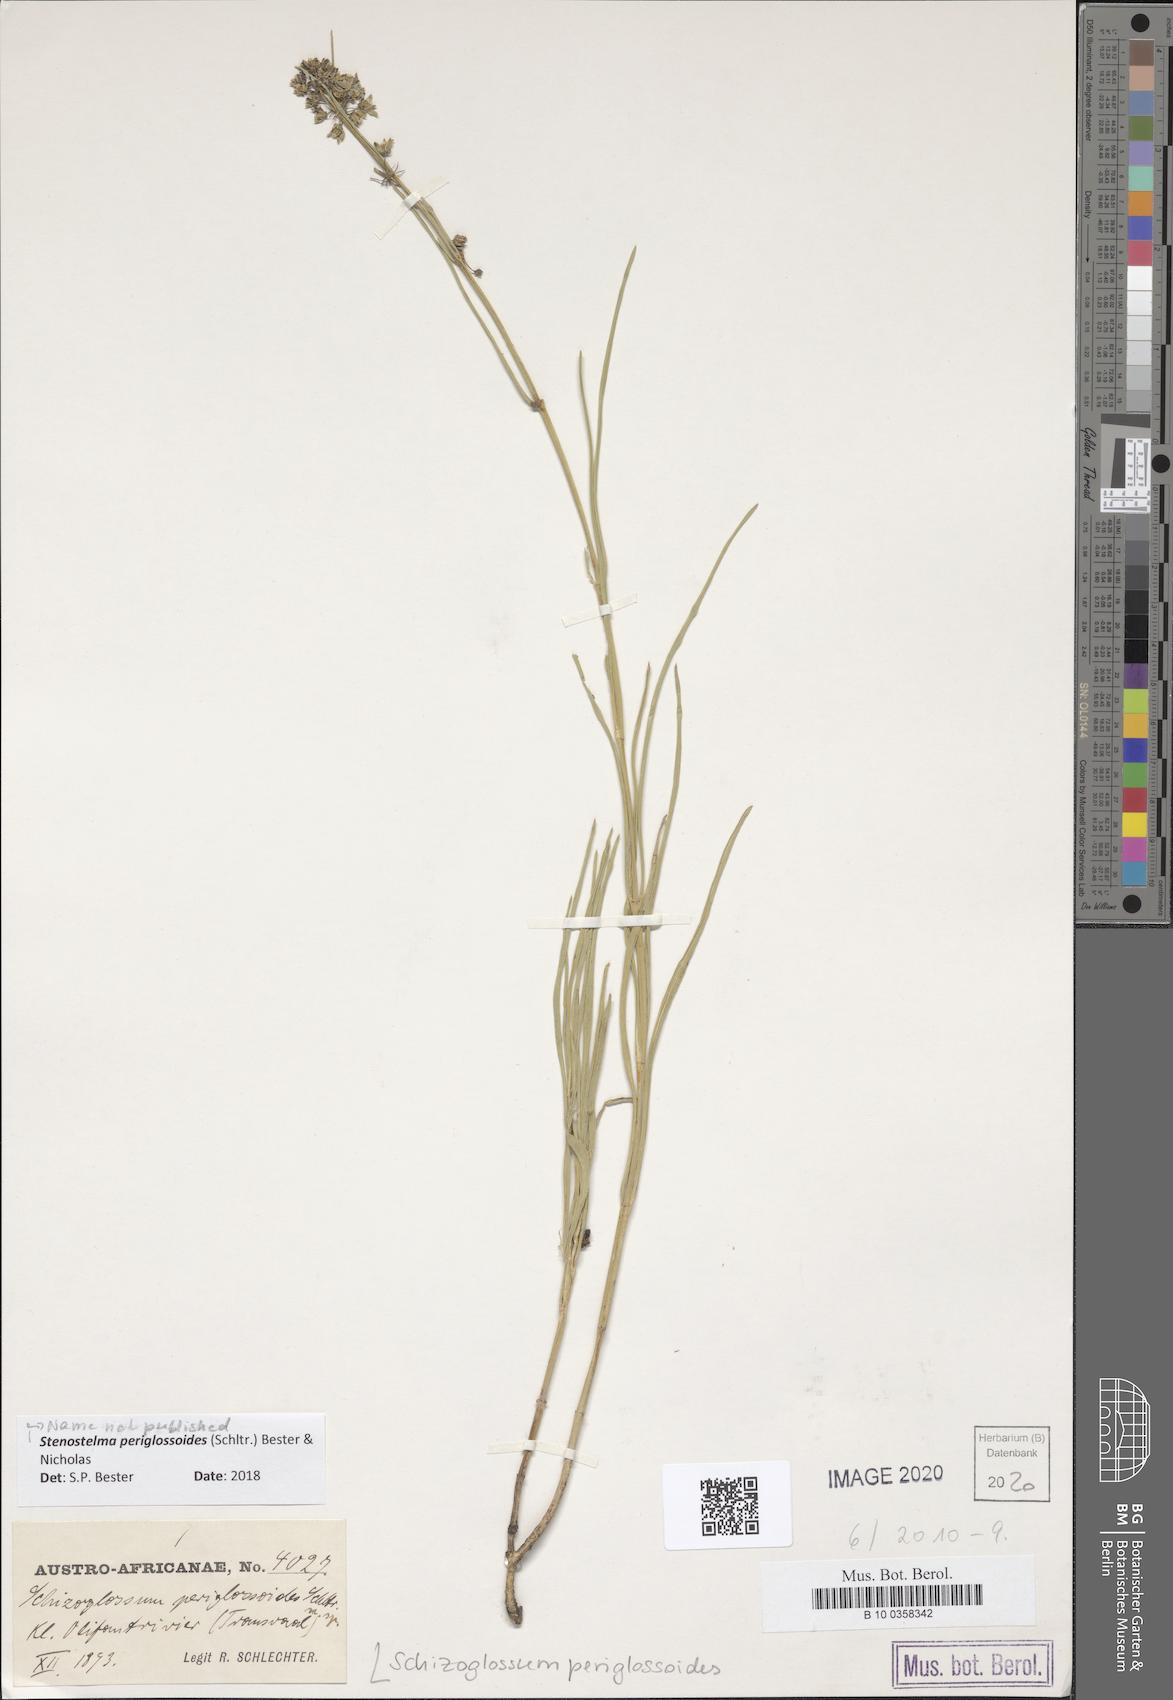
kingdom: Plantae
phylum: Tracheophyta
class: Magnoliopsida
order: Gentianales
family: Apocynaceae
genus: Stenostelma
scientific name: Stenostelma periglossoides
